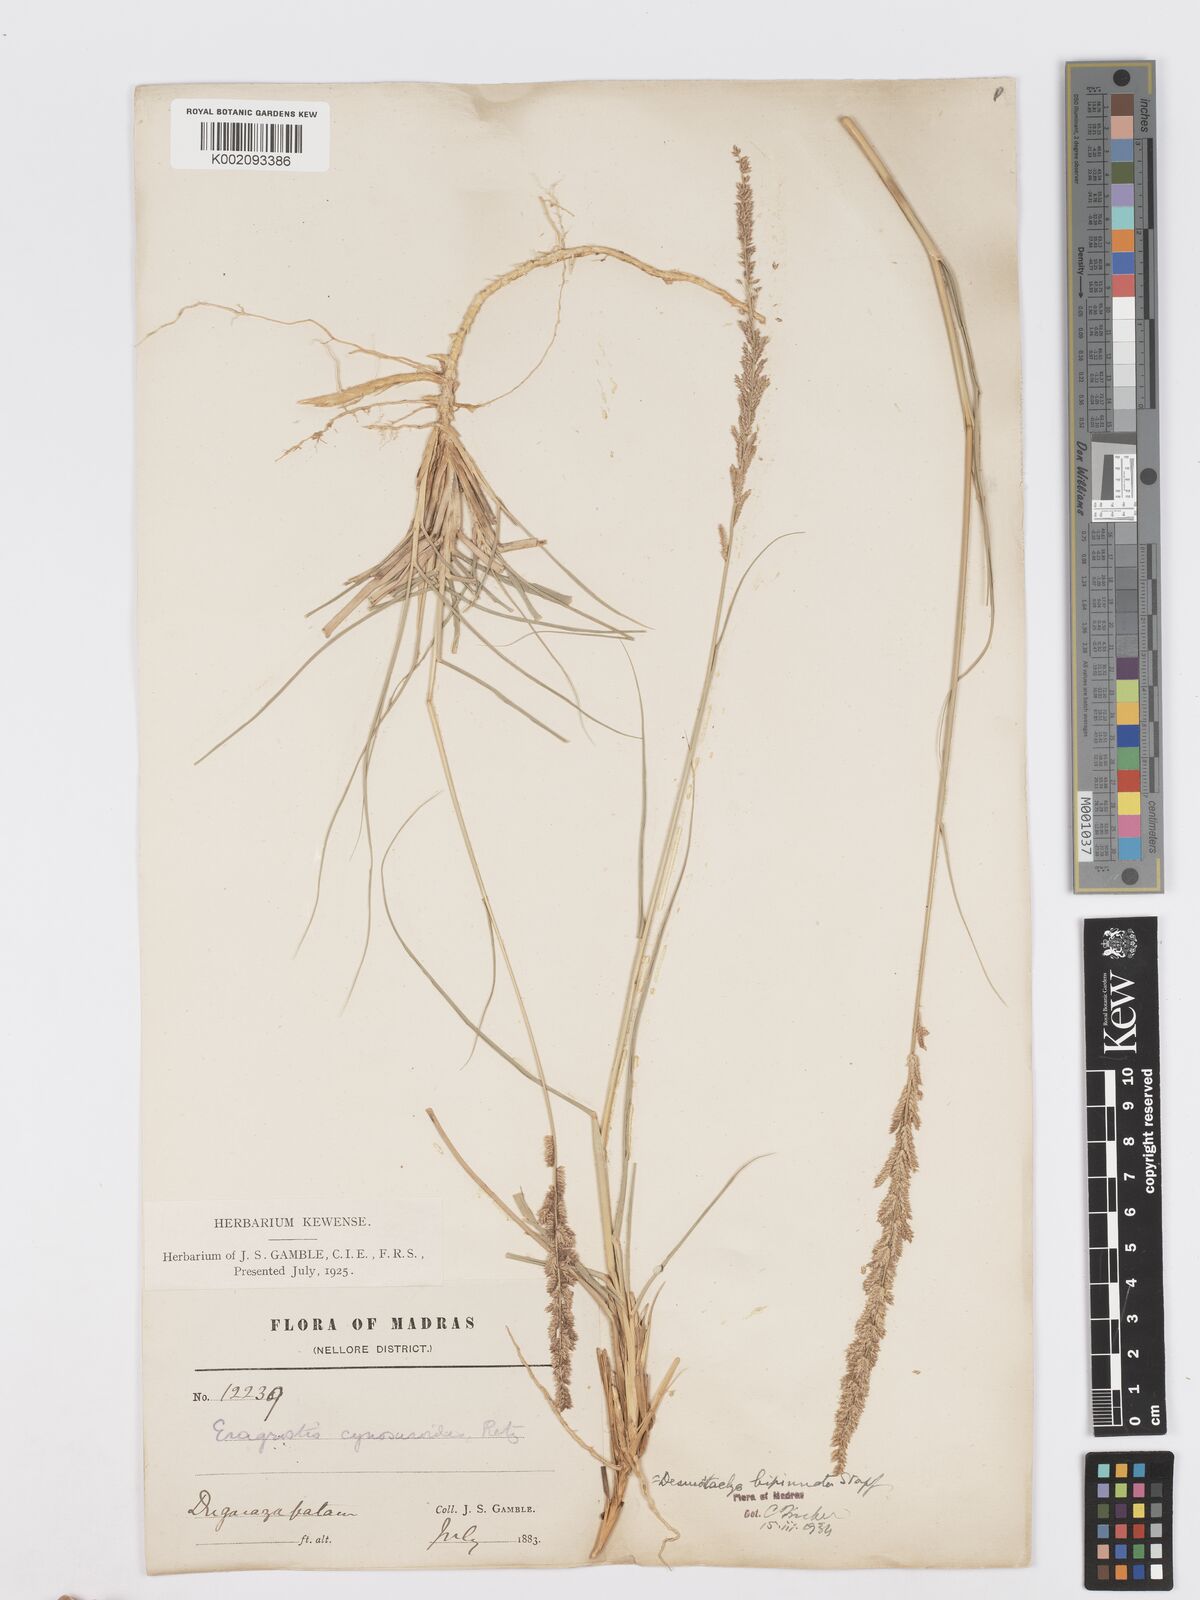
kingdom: Plantae
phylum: Tracheophyta
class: Liliopsida
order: Poales
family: Poaceae
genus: Desmostachya
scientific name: Desmostachya bipinnata
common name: Crowfoot grass
